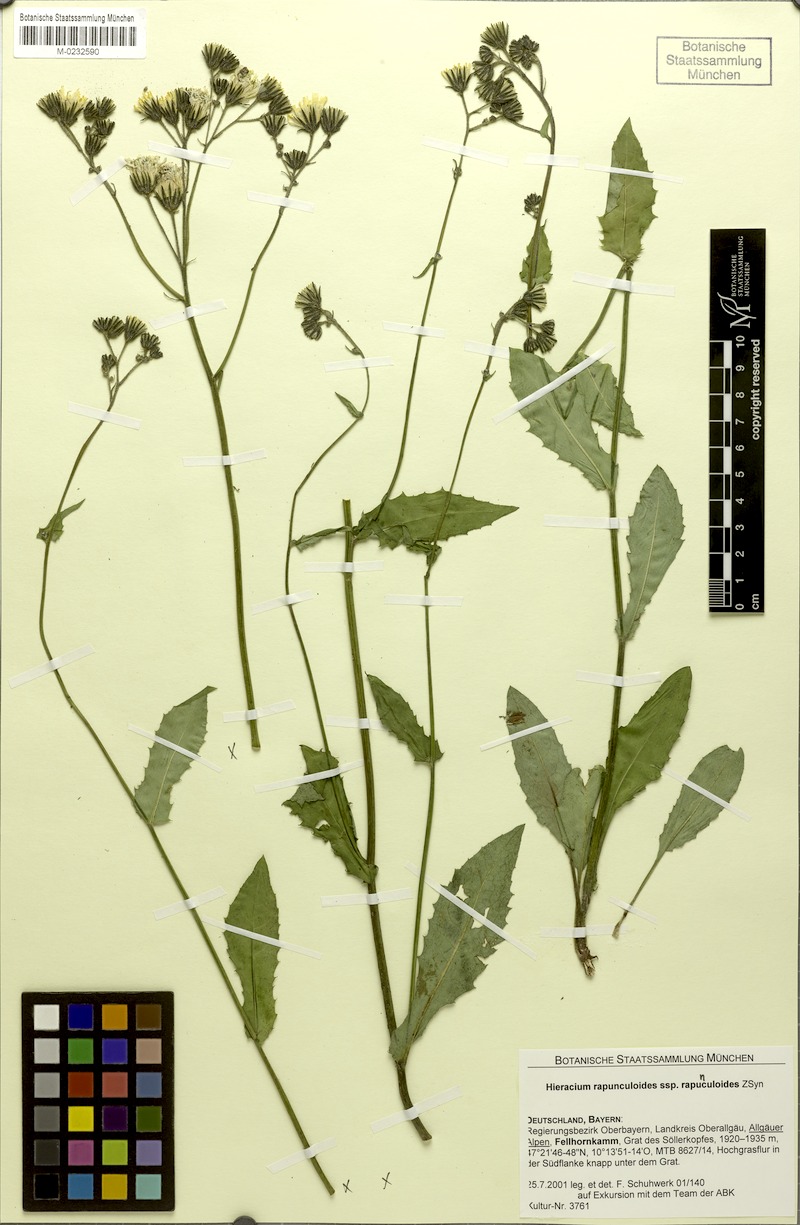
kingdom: Plantae
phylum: Tracheophyta
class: Magnoliopsida
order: Asterales
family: Asteraceae
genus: Hieracium
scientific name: Hieracium rapunculoides
